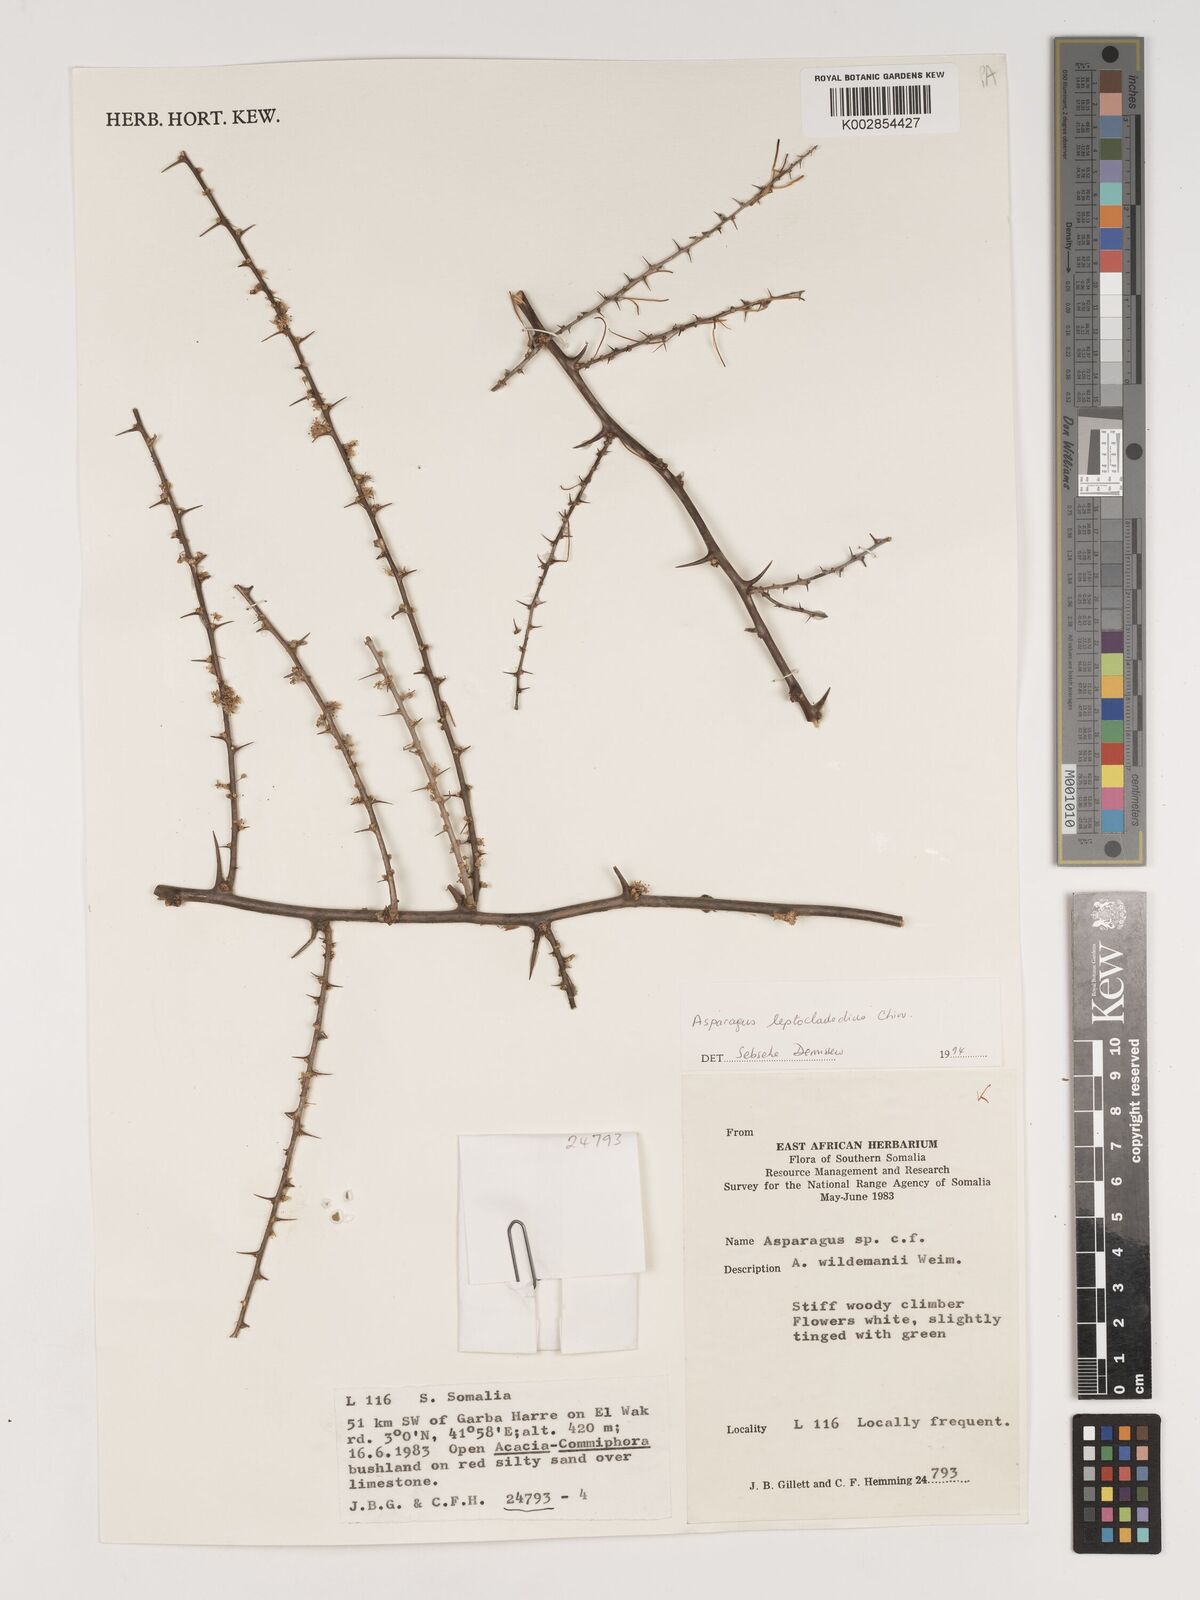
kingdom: Plantae
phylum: Tracheophyta
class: Liliopsida
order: Asparagales
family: Asparagaceae
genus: Asparagus
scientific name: Asparagus leptocladodius
